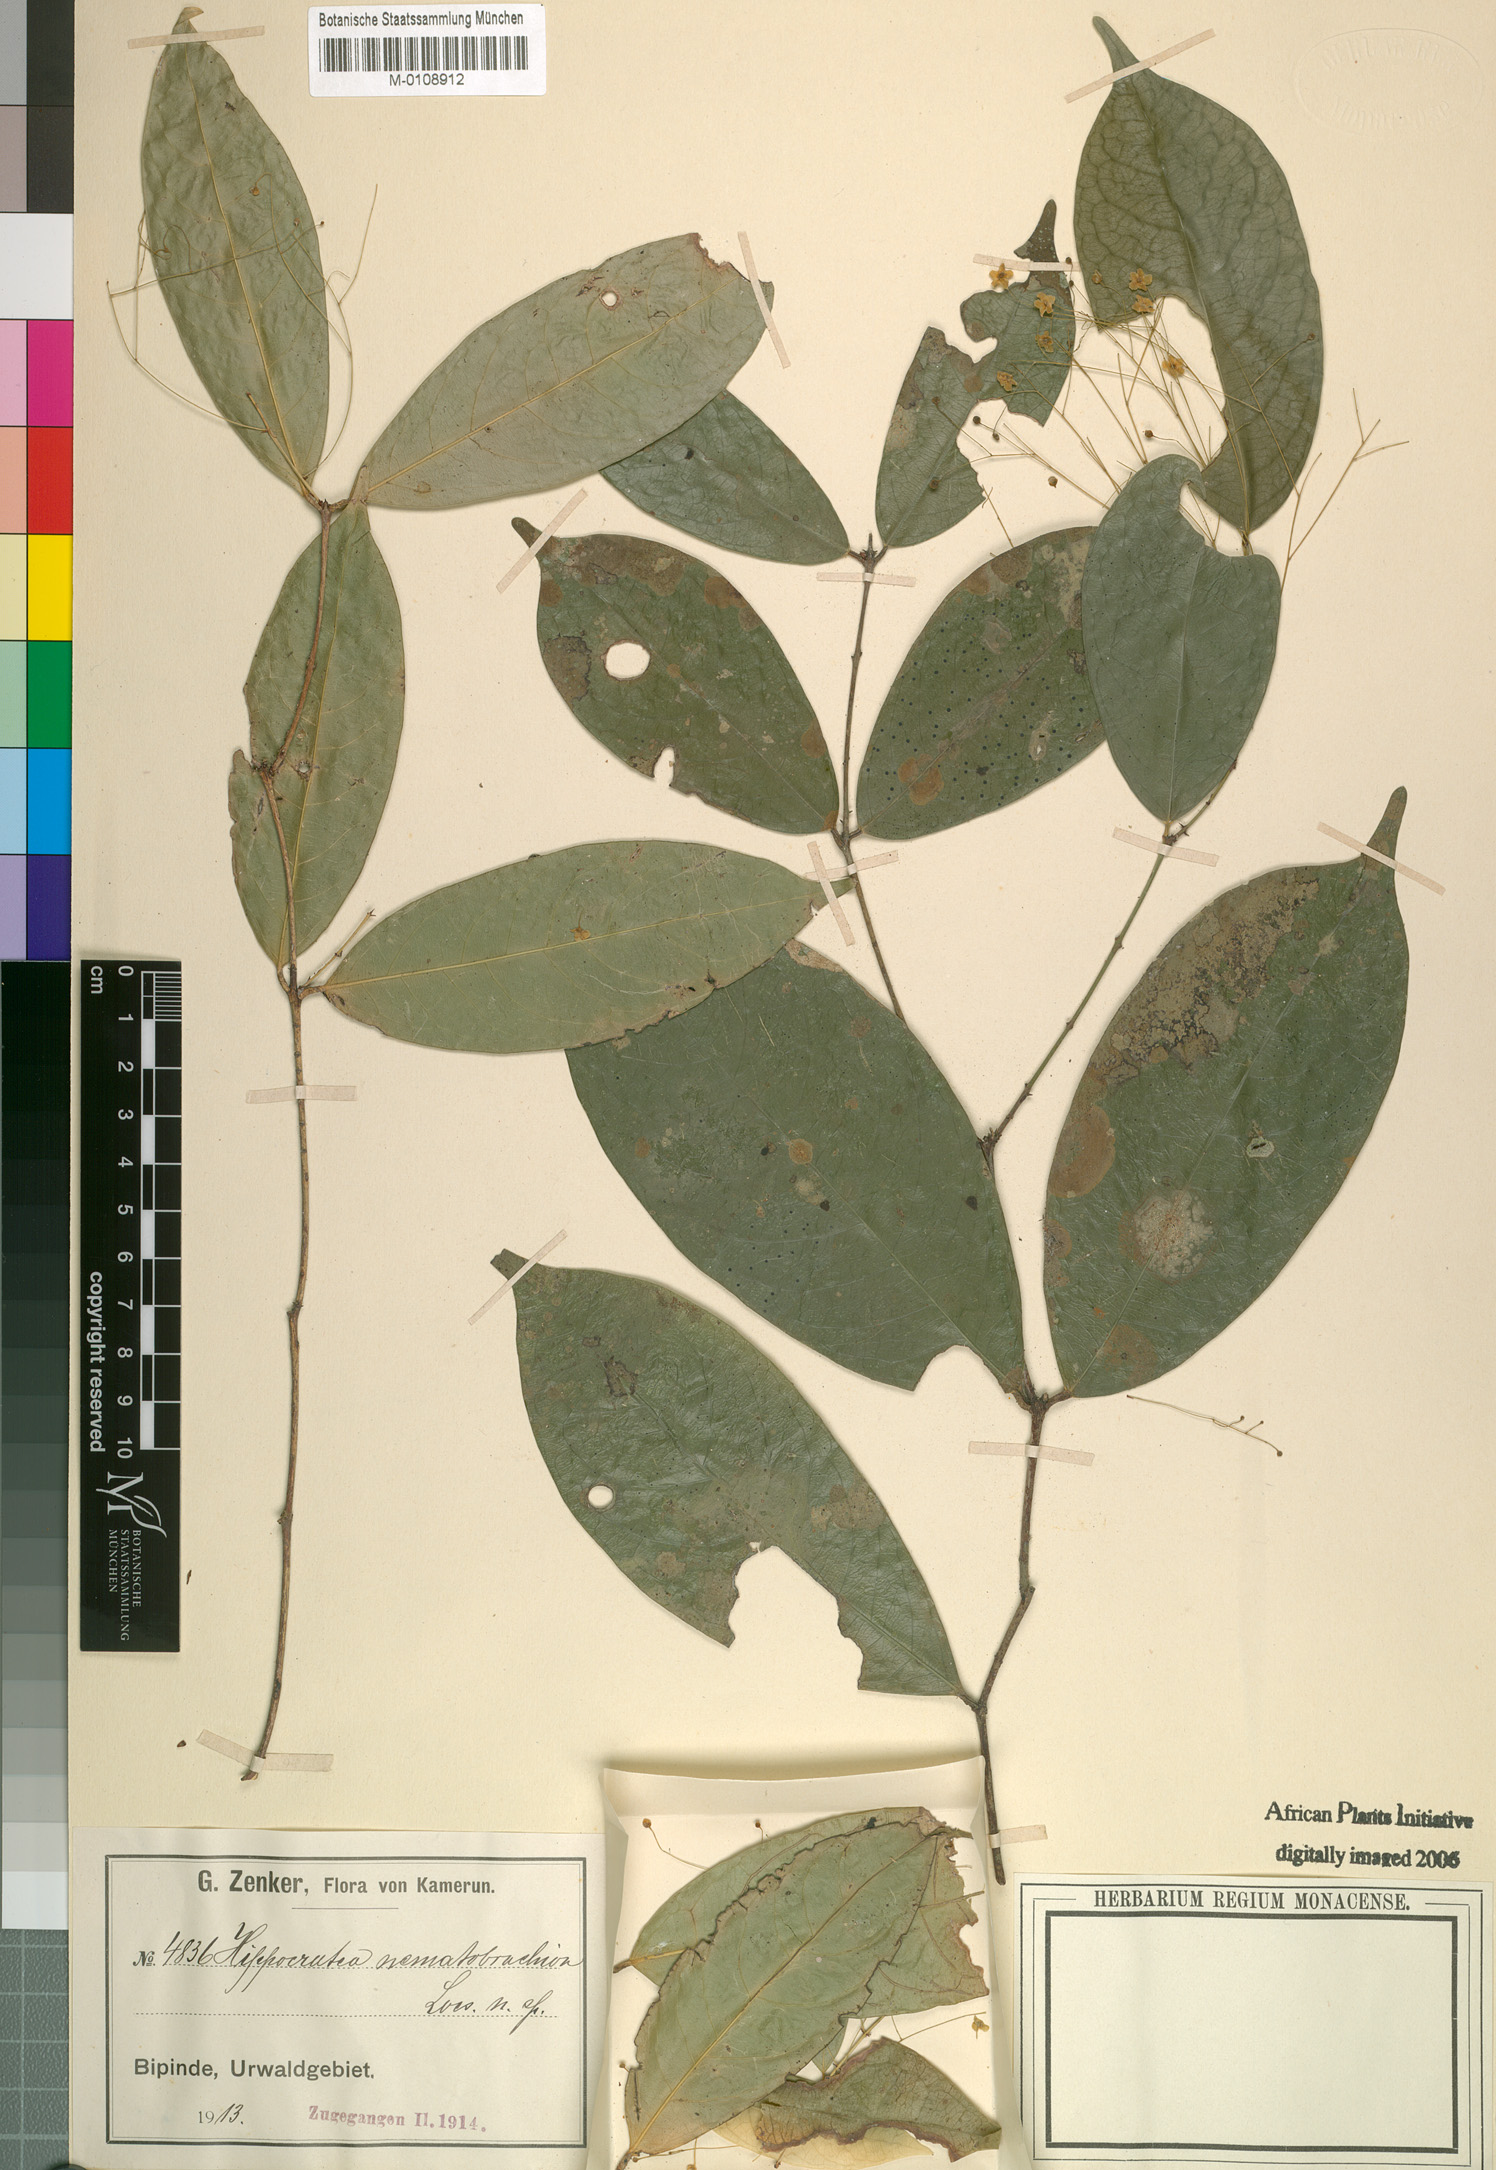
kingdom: Plantae
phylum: Tracheophyta
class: Magnoliopsida
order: Celastrales
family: Celastraceae
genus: Hippocratea
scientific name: Hippocratea
